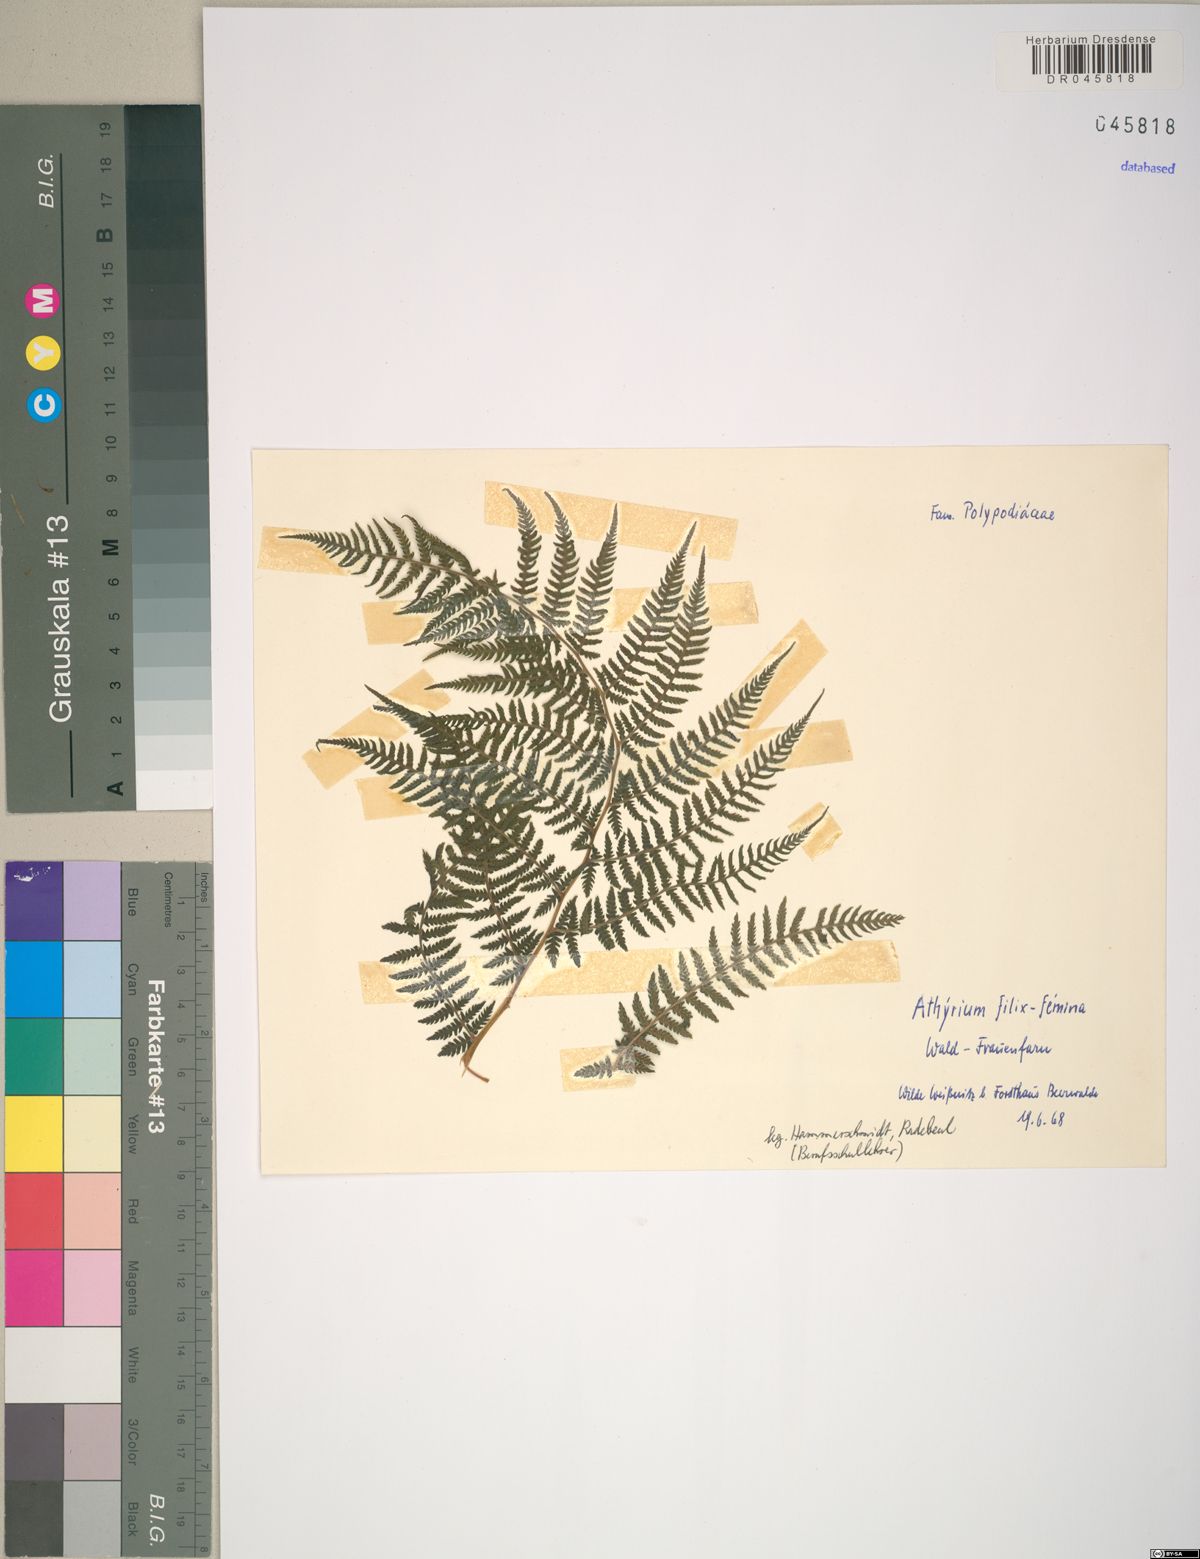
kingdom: Plantae
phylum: Tracheophyta
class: Polypodiopsida
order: Polypodiales
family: Athyriaceae
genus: Athyrium
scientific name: Athyrium filix-femina
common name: Lady fern
